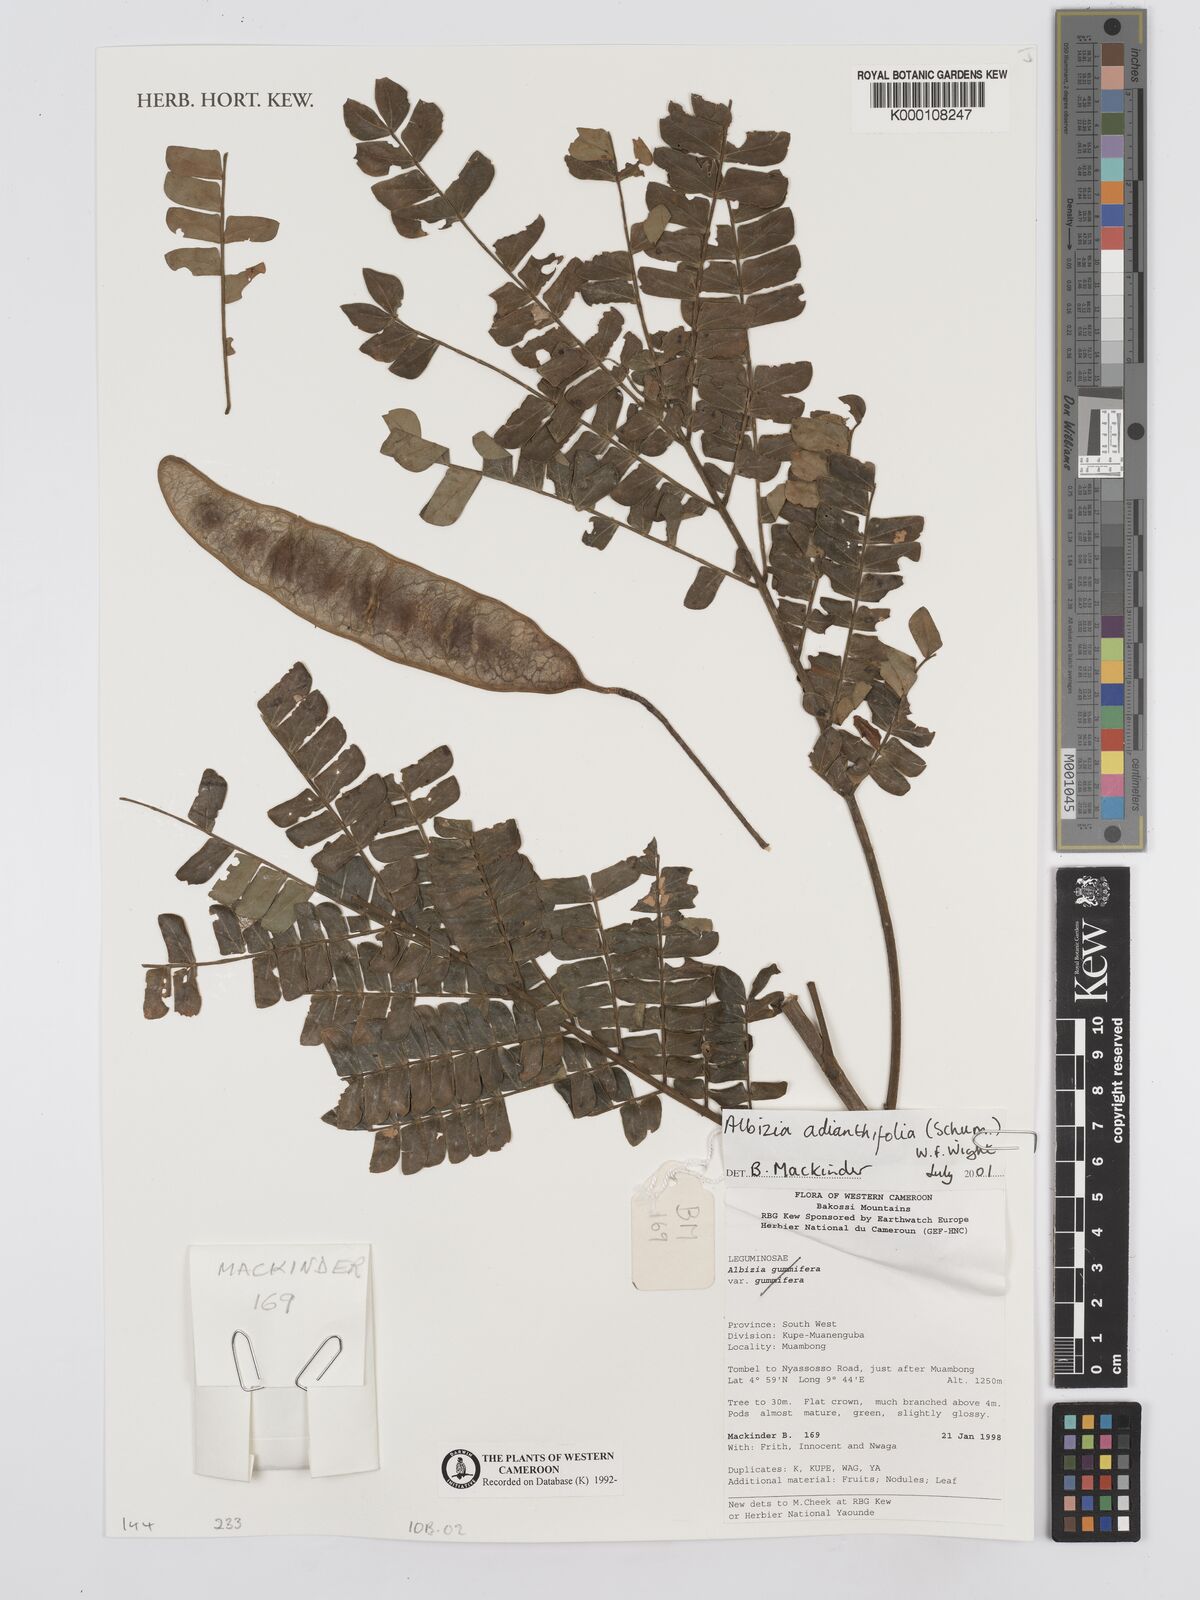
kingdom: Plantae
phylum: Tracheophyta
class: Magnoliopsida
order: Fabales
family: Fabaceae
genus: Albizia
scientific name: Albizia adianthifolia
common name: West african albizia
